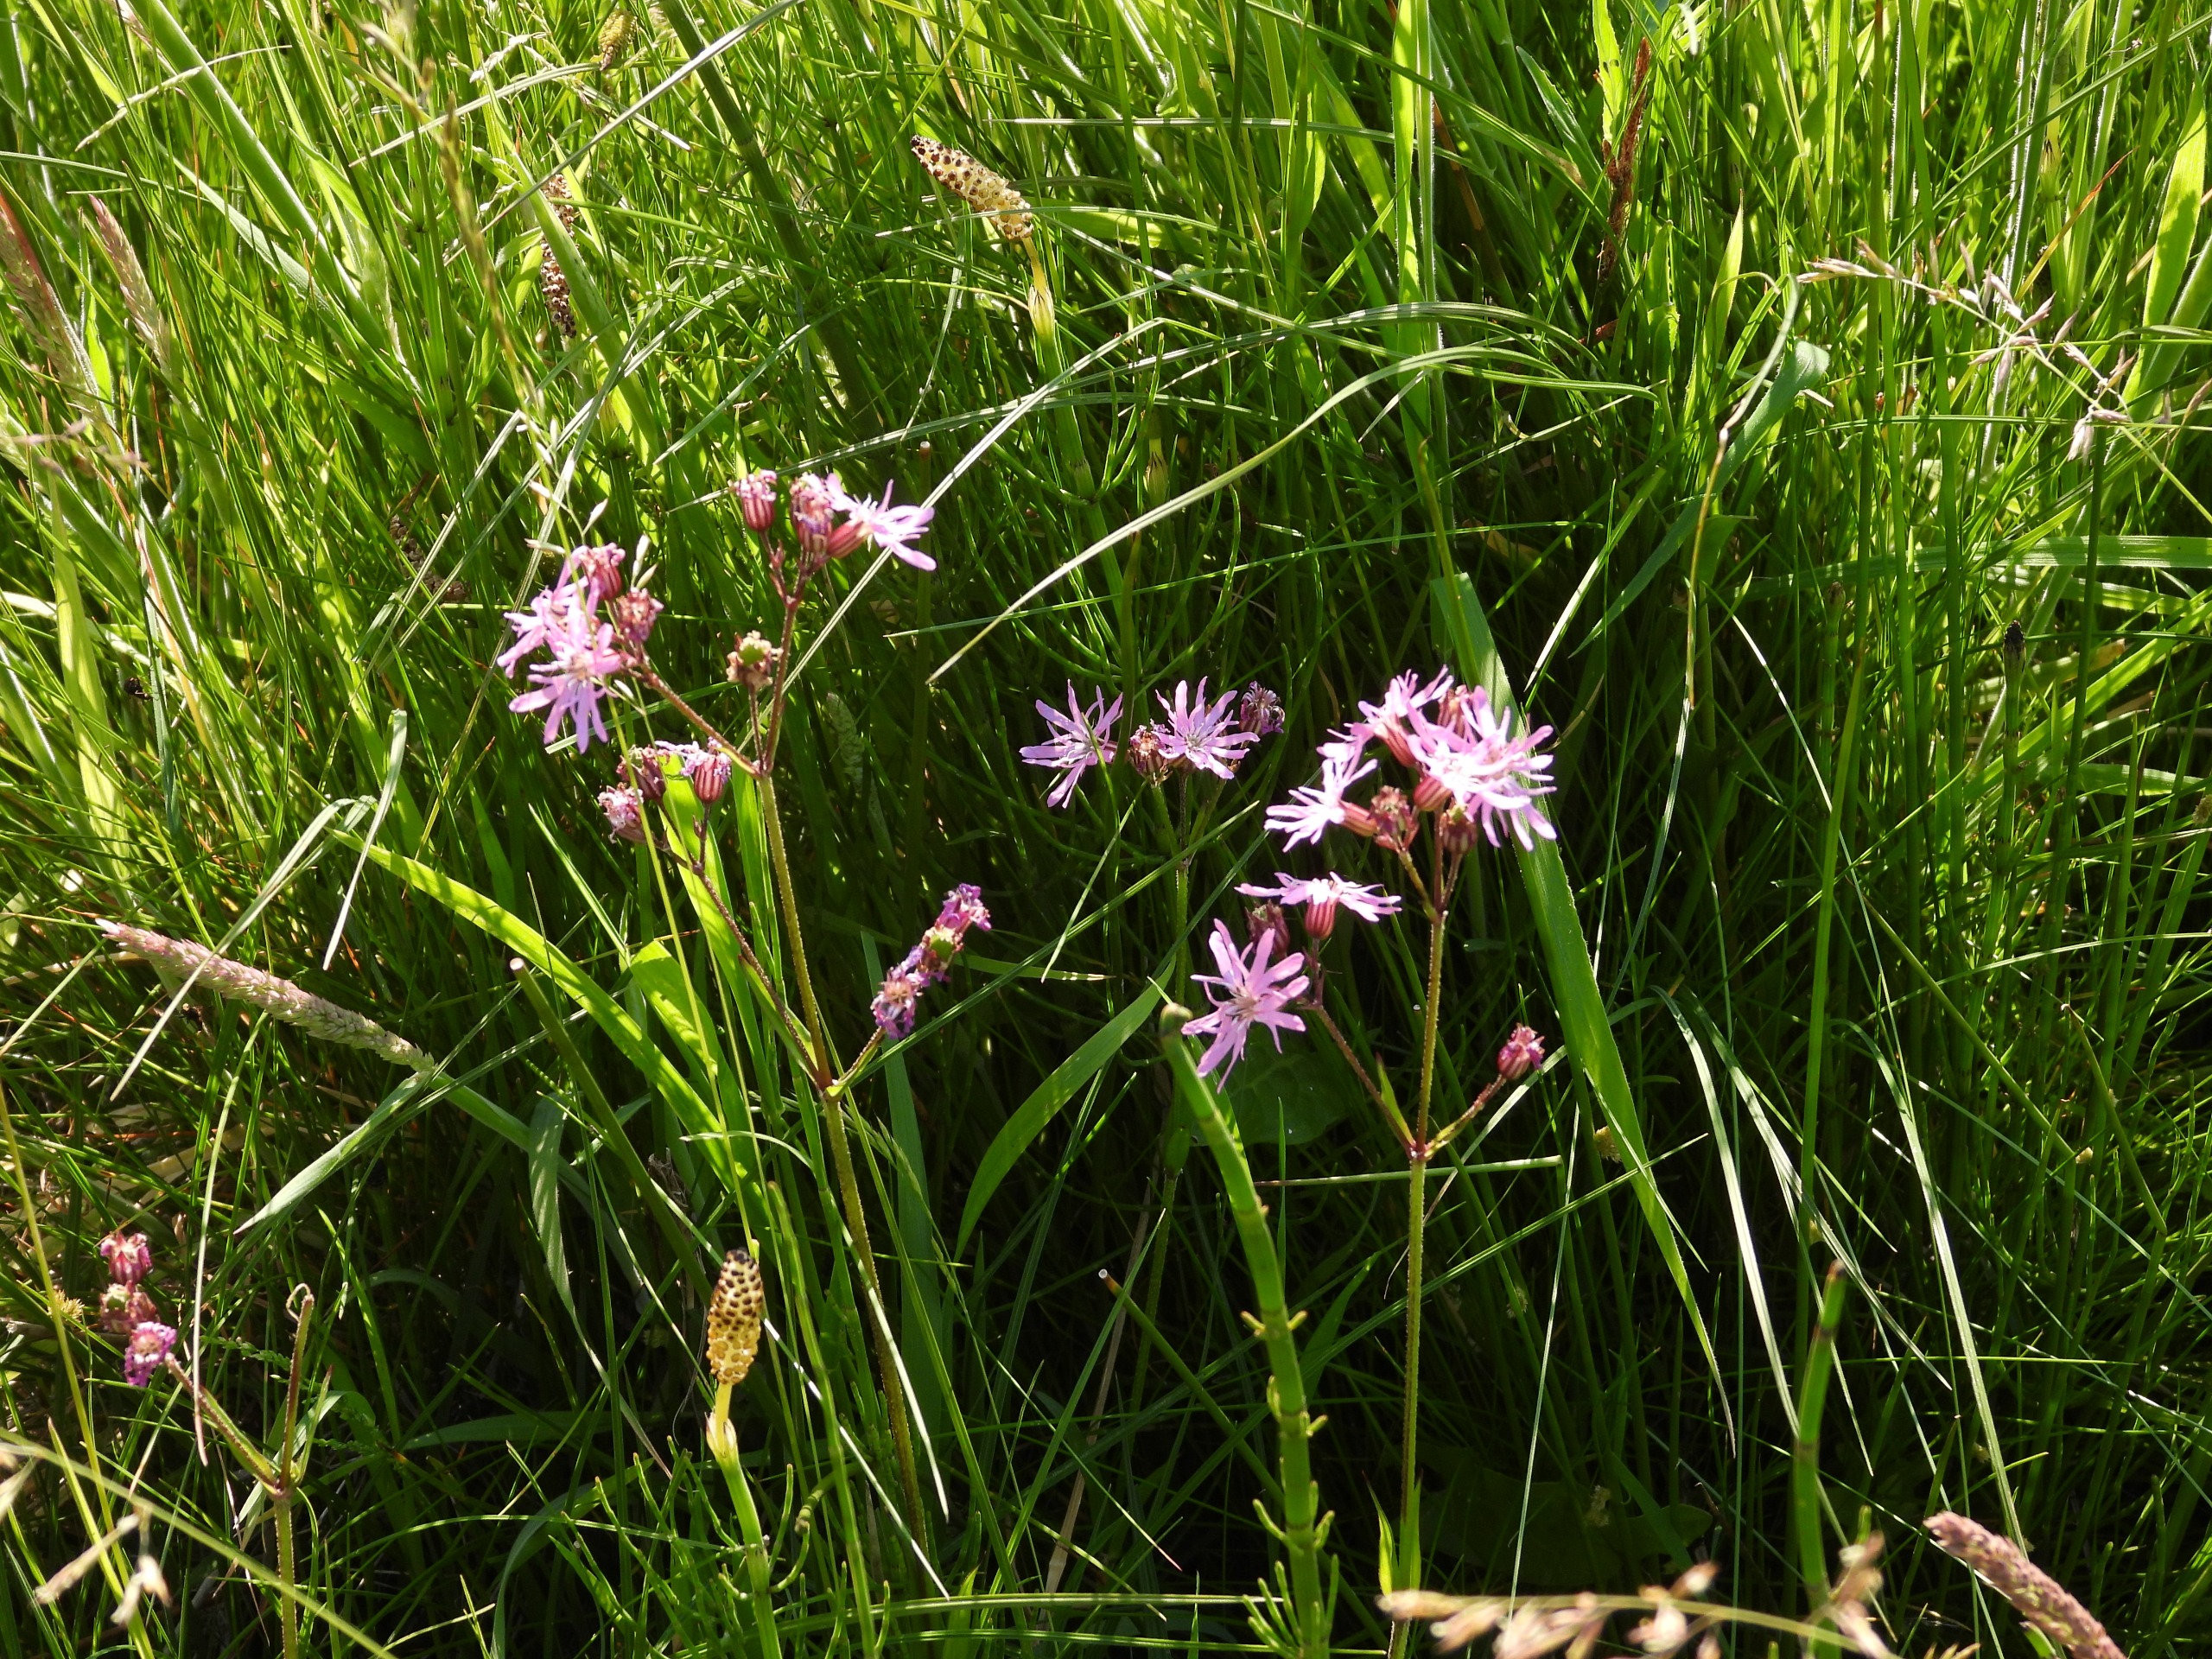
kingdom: Plantae
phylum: Tracheophyta
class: Magnoliopsida
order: Caryophyllales
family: Caryophyllaceae
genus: Silene
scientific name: Silene flos-cuculi
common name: Trævlekrone
